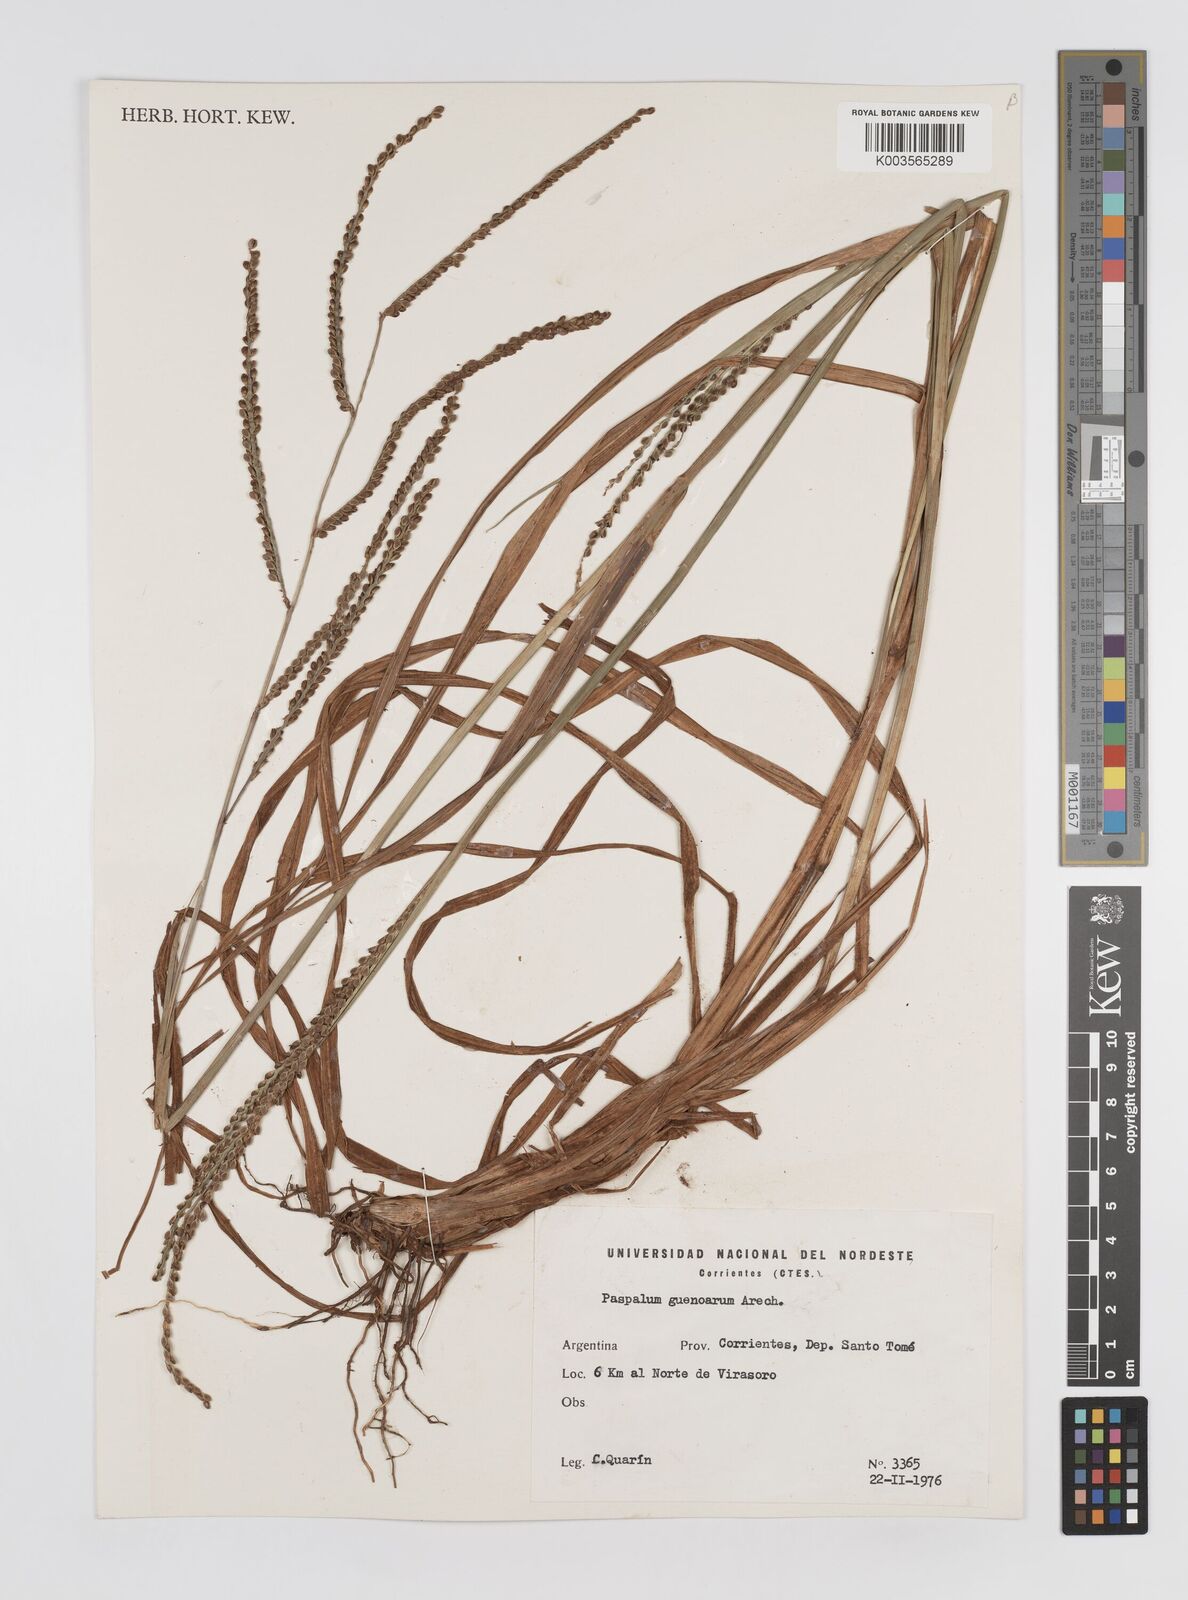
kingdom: Plantae
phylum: Tracheophyta
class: Liliopsida
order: Poales
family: Poaceae
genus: Paspalum
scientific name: Paspalum guenoarum
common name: Wintergreen paspalum
